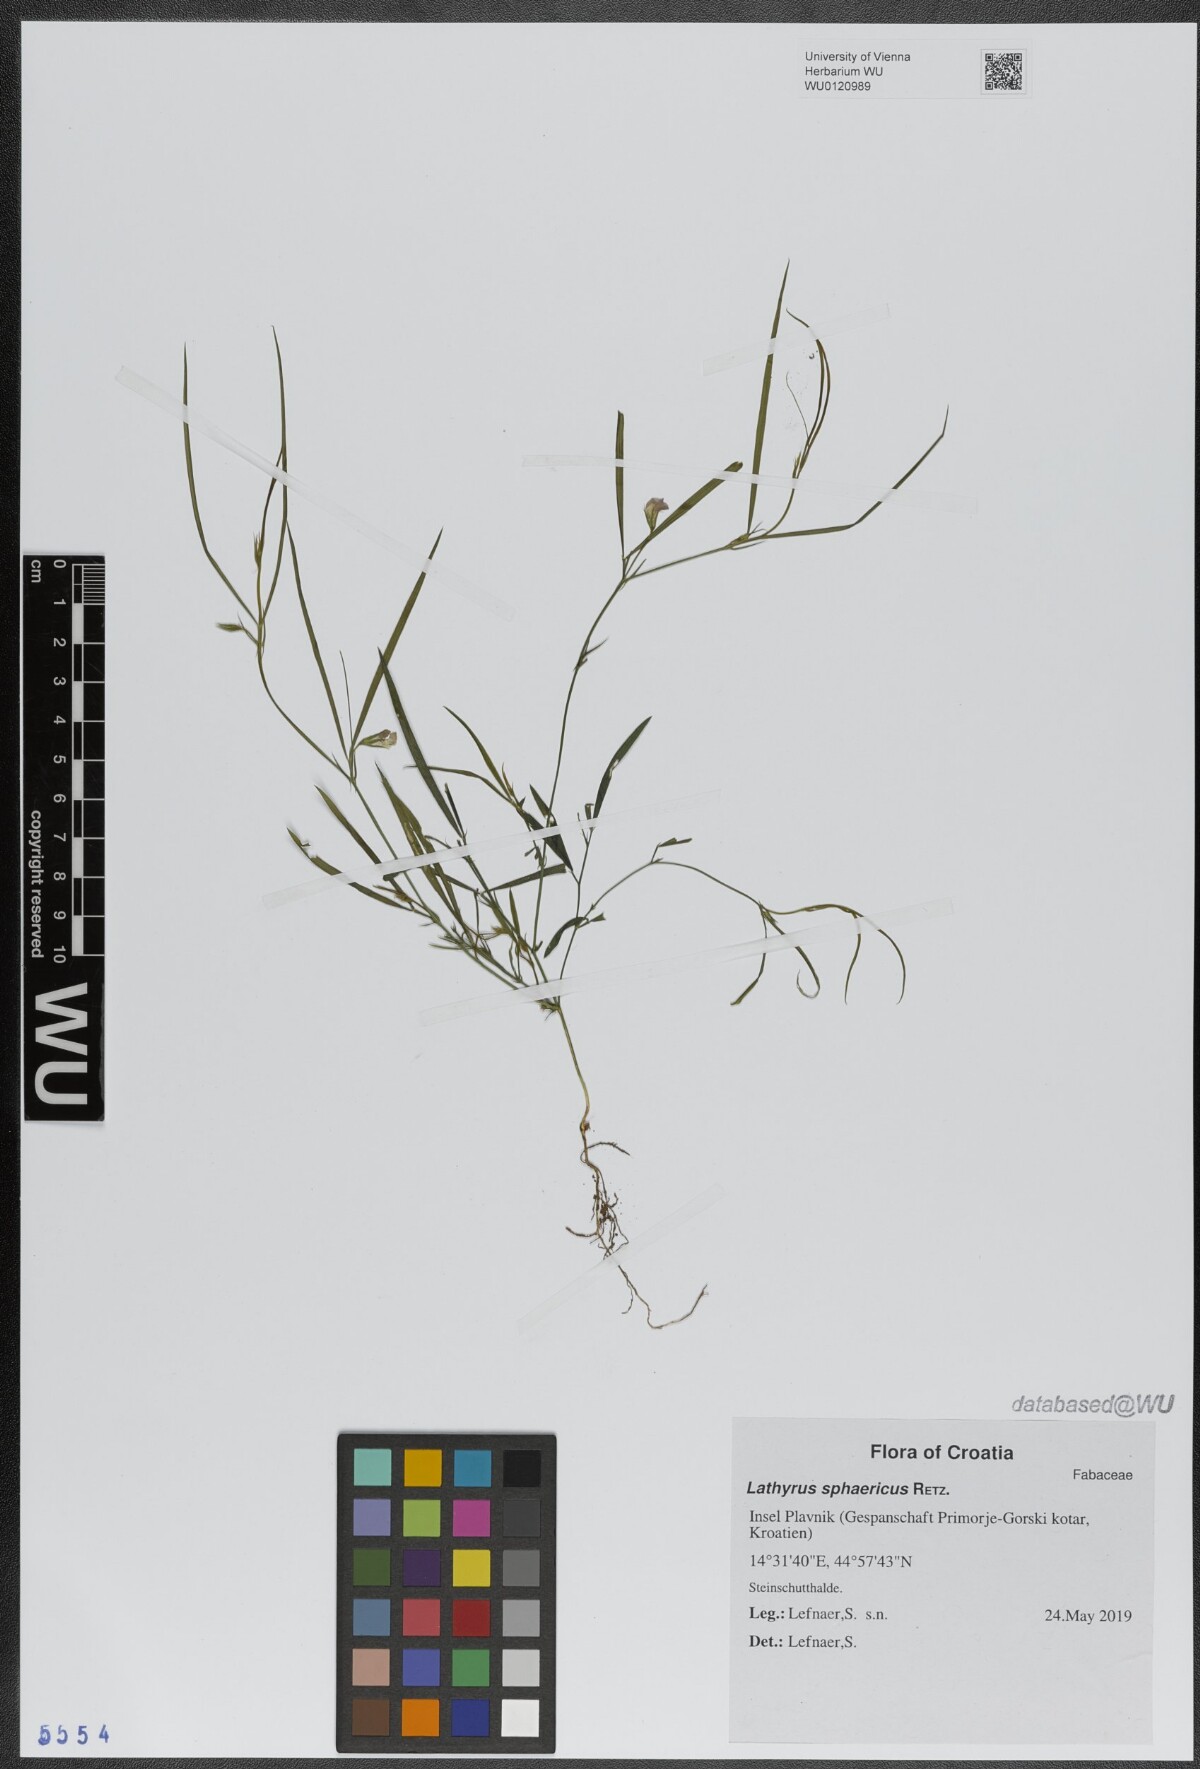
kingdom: Plantae
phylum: Tracheophyta
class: Magnoliopsida
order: Fabales
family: Fabaceae
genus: Lathyrus
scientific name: Lathyrus sphaericus
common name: Grass pea
